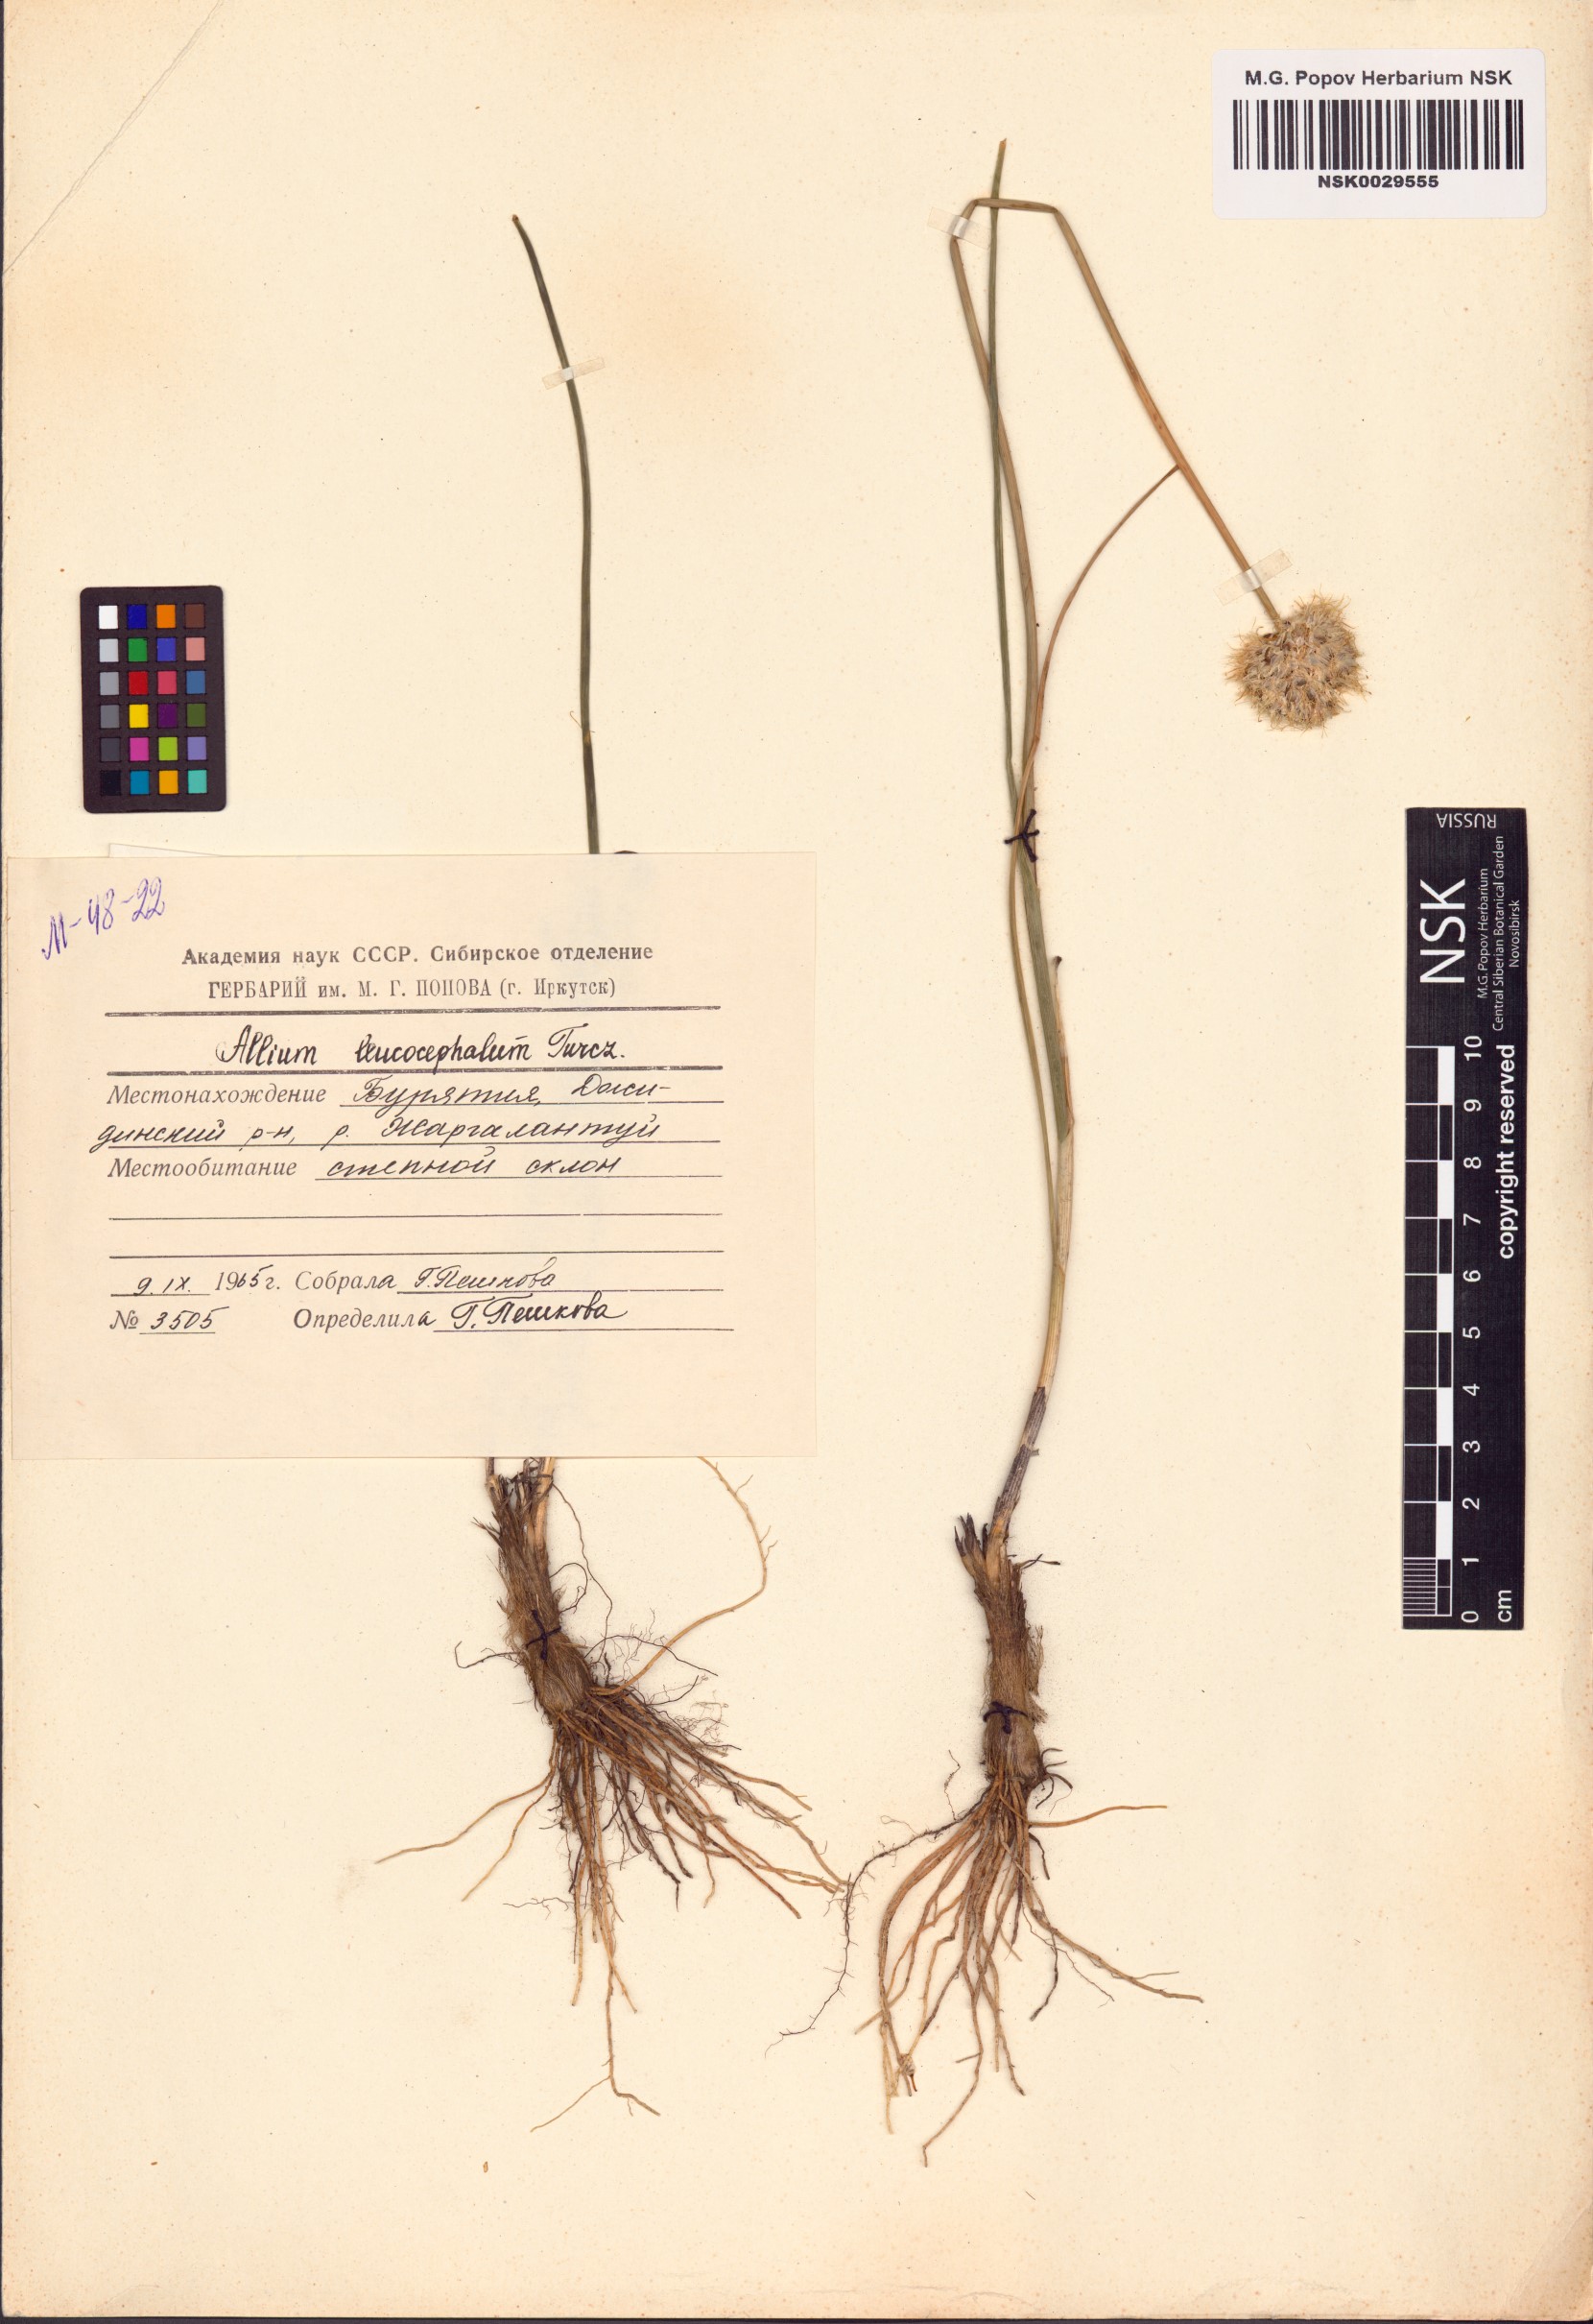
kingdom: Plantae
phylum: Tracheophyta
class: Liliopsida
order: Asparagales
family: Amaryllidaceae
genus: Allium
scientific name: Allium leucocephalum
